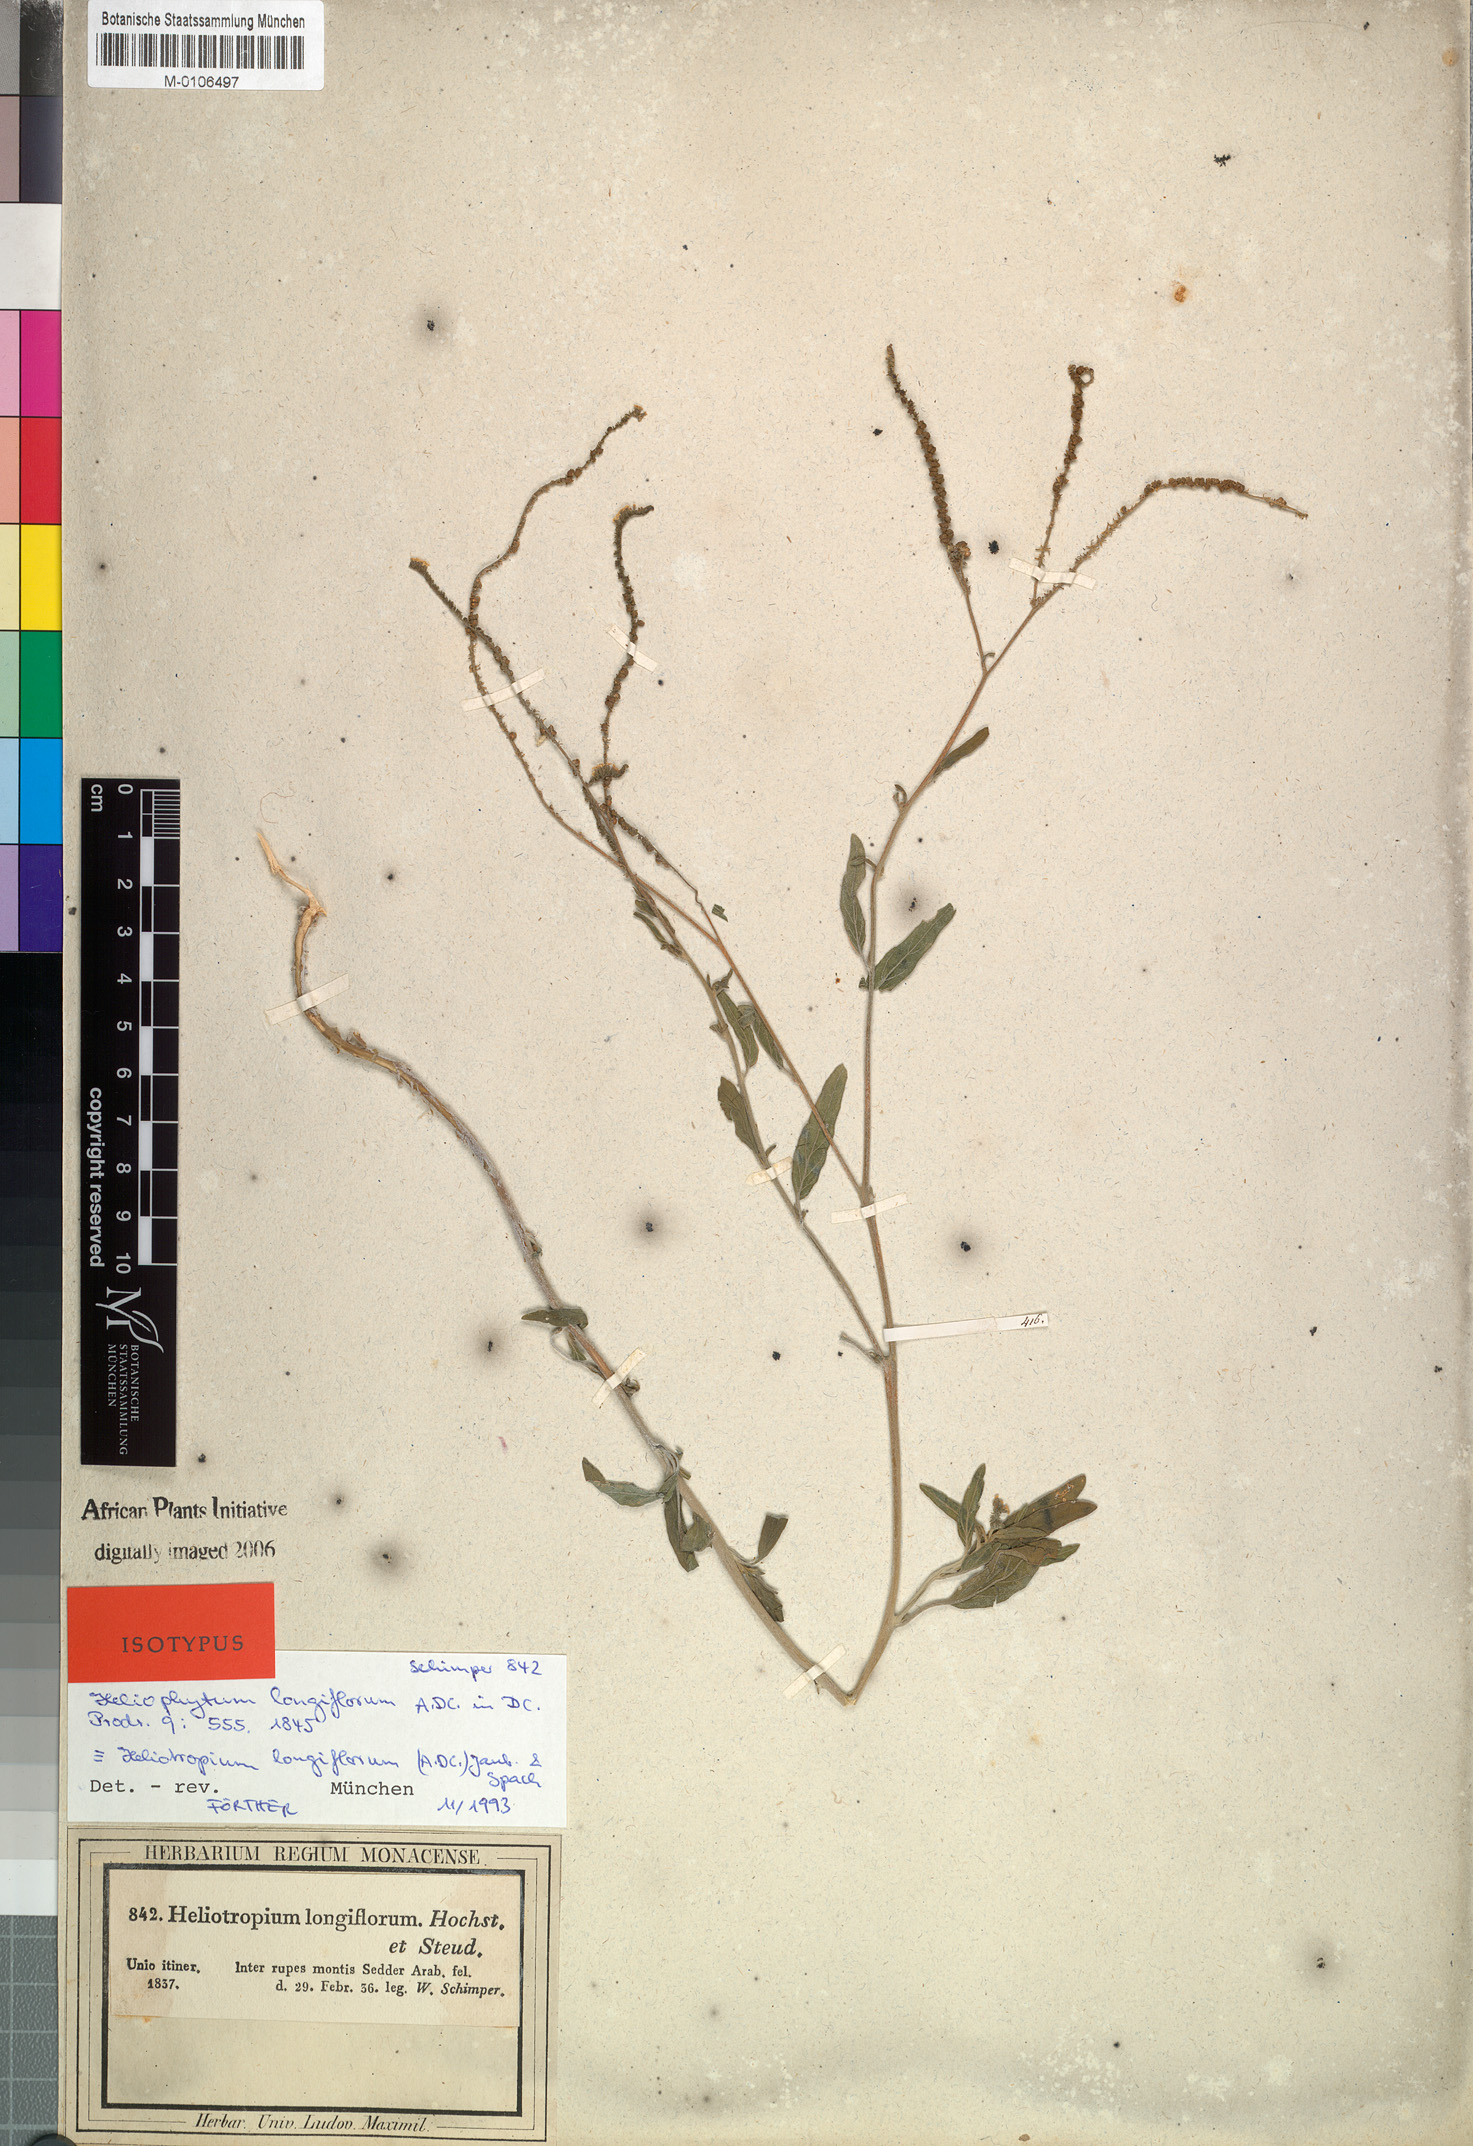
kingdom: Plantae
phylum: Tracheophyta
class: Magnoliopsida
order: Boraginales
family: Heliotropiaceae
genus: Heliotropium
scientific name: Heliotropium longiflorum
